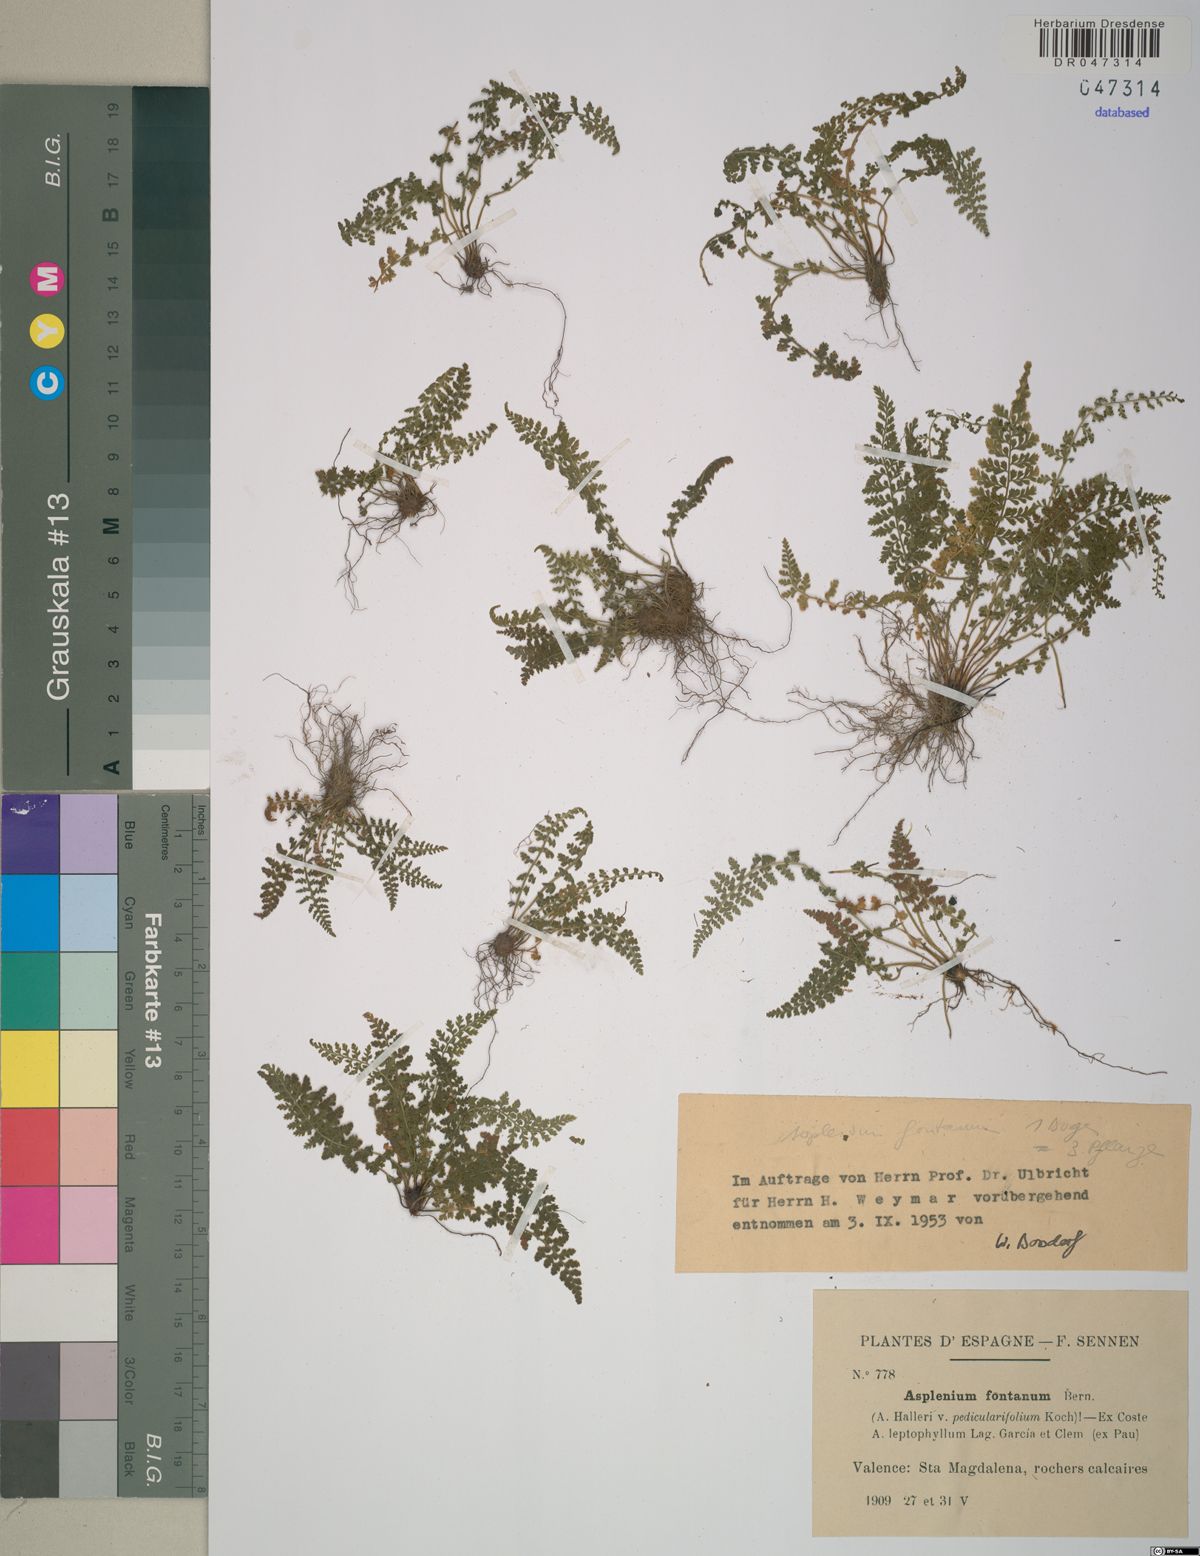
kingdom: Plantae
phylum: Tracheophyta
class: Polypodiopsida
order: Polypodiales
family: Aspleniaceae
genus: Asplenium
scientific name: Asplenium fontanum
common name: Fountain spleenwort
